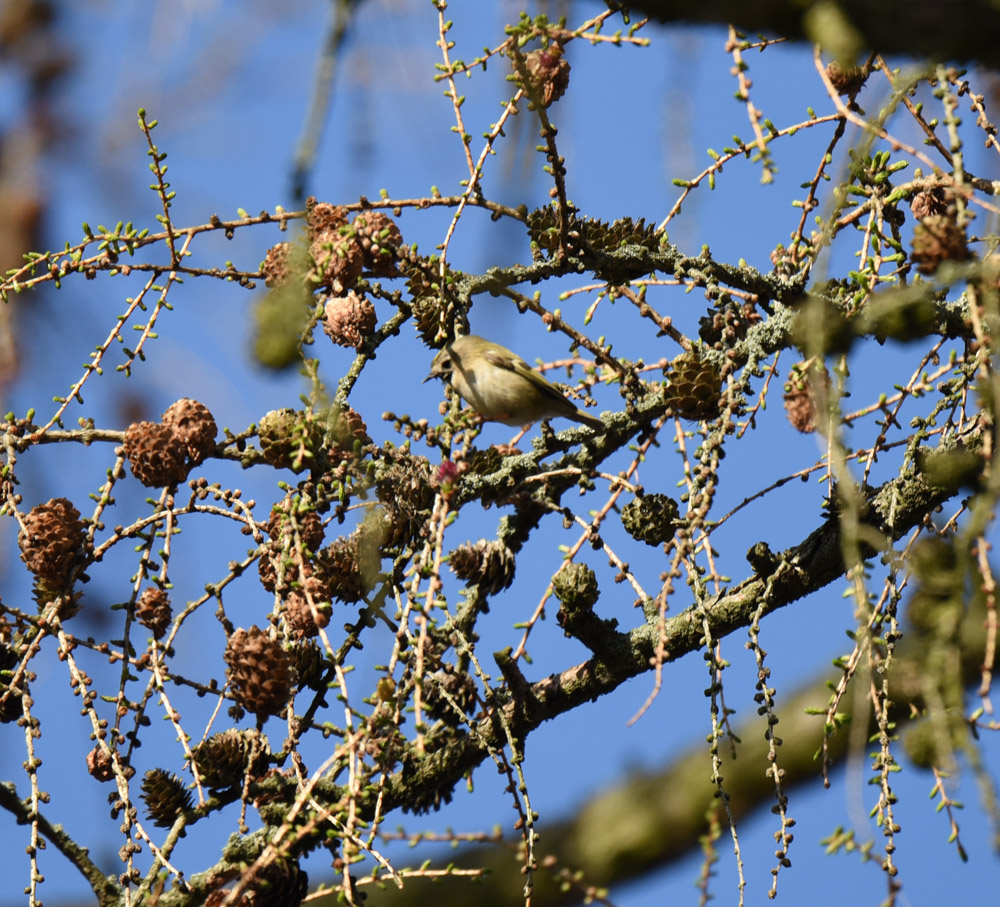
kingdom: Animalia
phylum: Chordata
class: Aves
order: Passeriformes
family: Regulidae
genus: Regulus
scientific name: Regulus regulus
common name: Goldcrest
